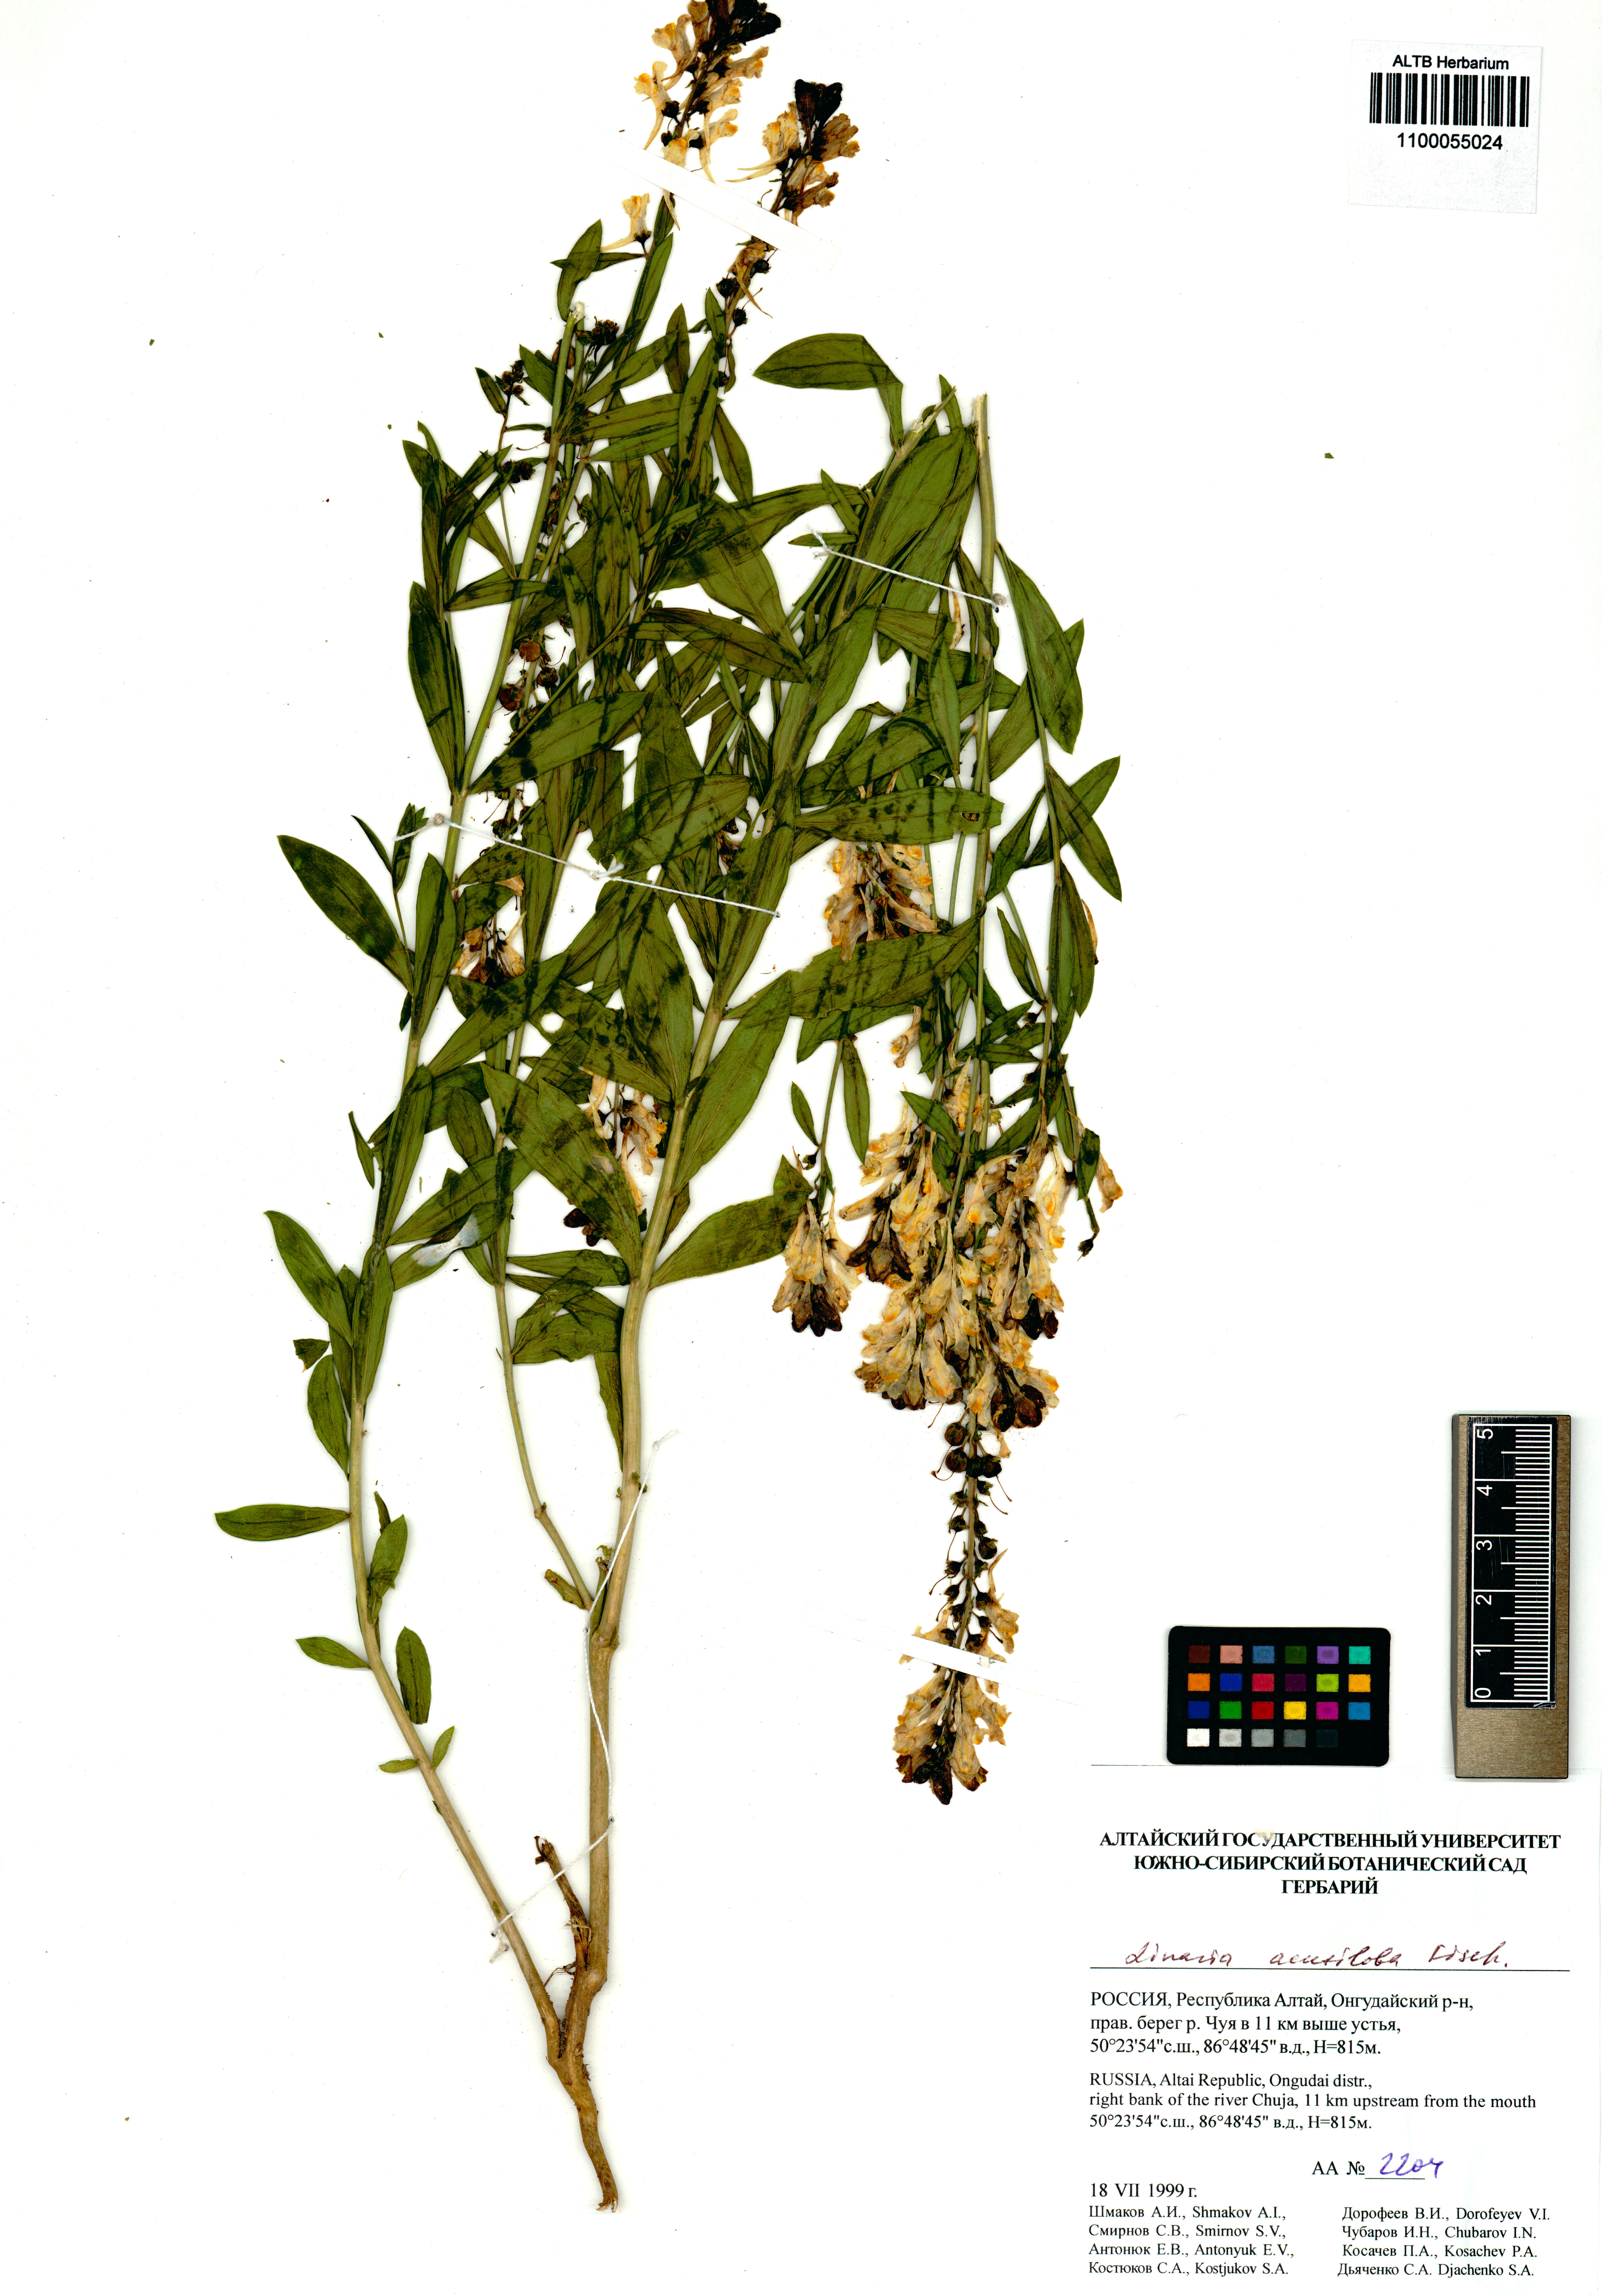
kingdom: Plantae
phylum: Tracheophyta
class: Magnoliopsida
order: Lamiales
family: Plantaginaceae
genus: Linaria
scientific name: Linaria acutiloba
